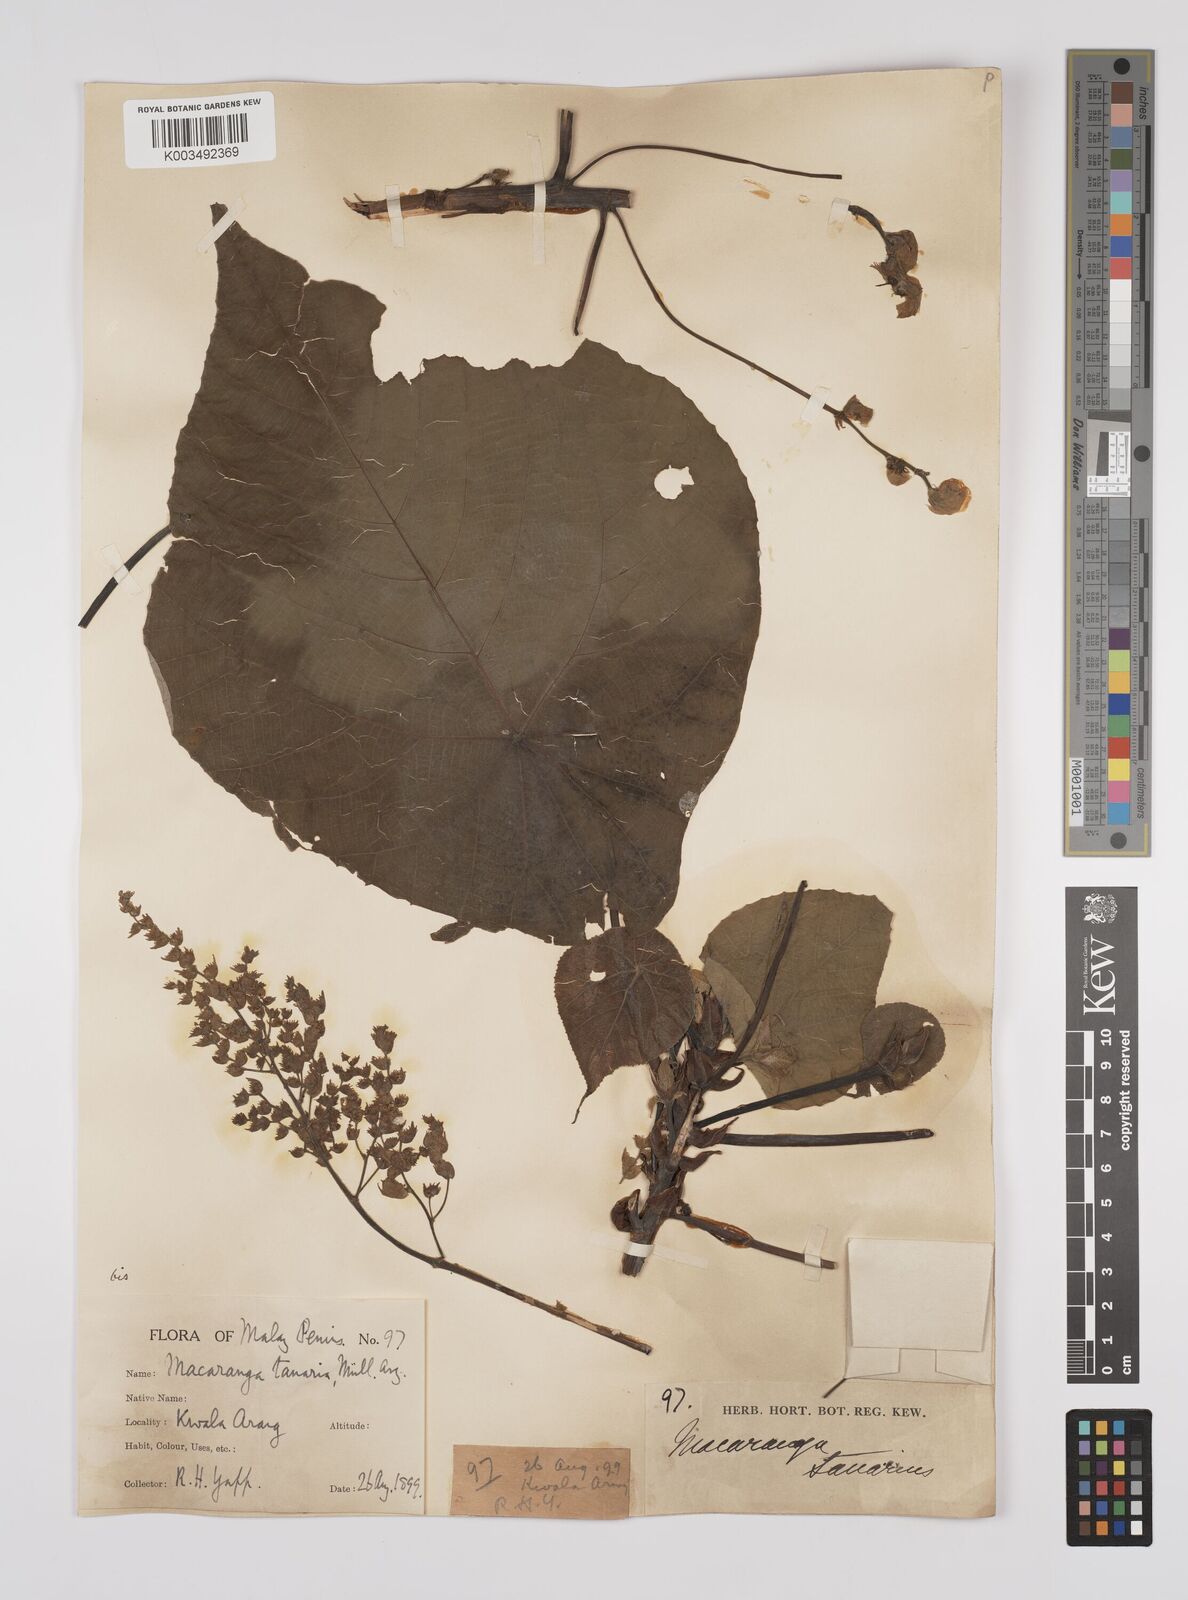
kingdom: Plantae
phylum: Tracheophyta
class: Magnoliopsida
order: Malpighiales
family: Euphorbiaceae
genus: Macaranga
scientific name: Macaranga tanarius
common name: Parasol leaf tree
